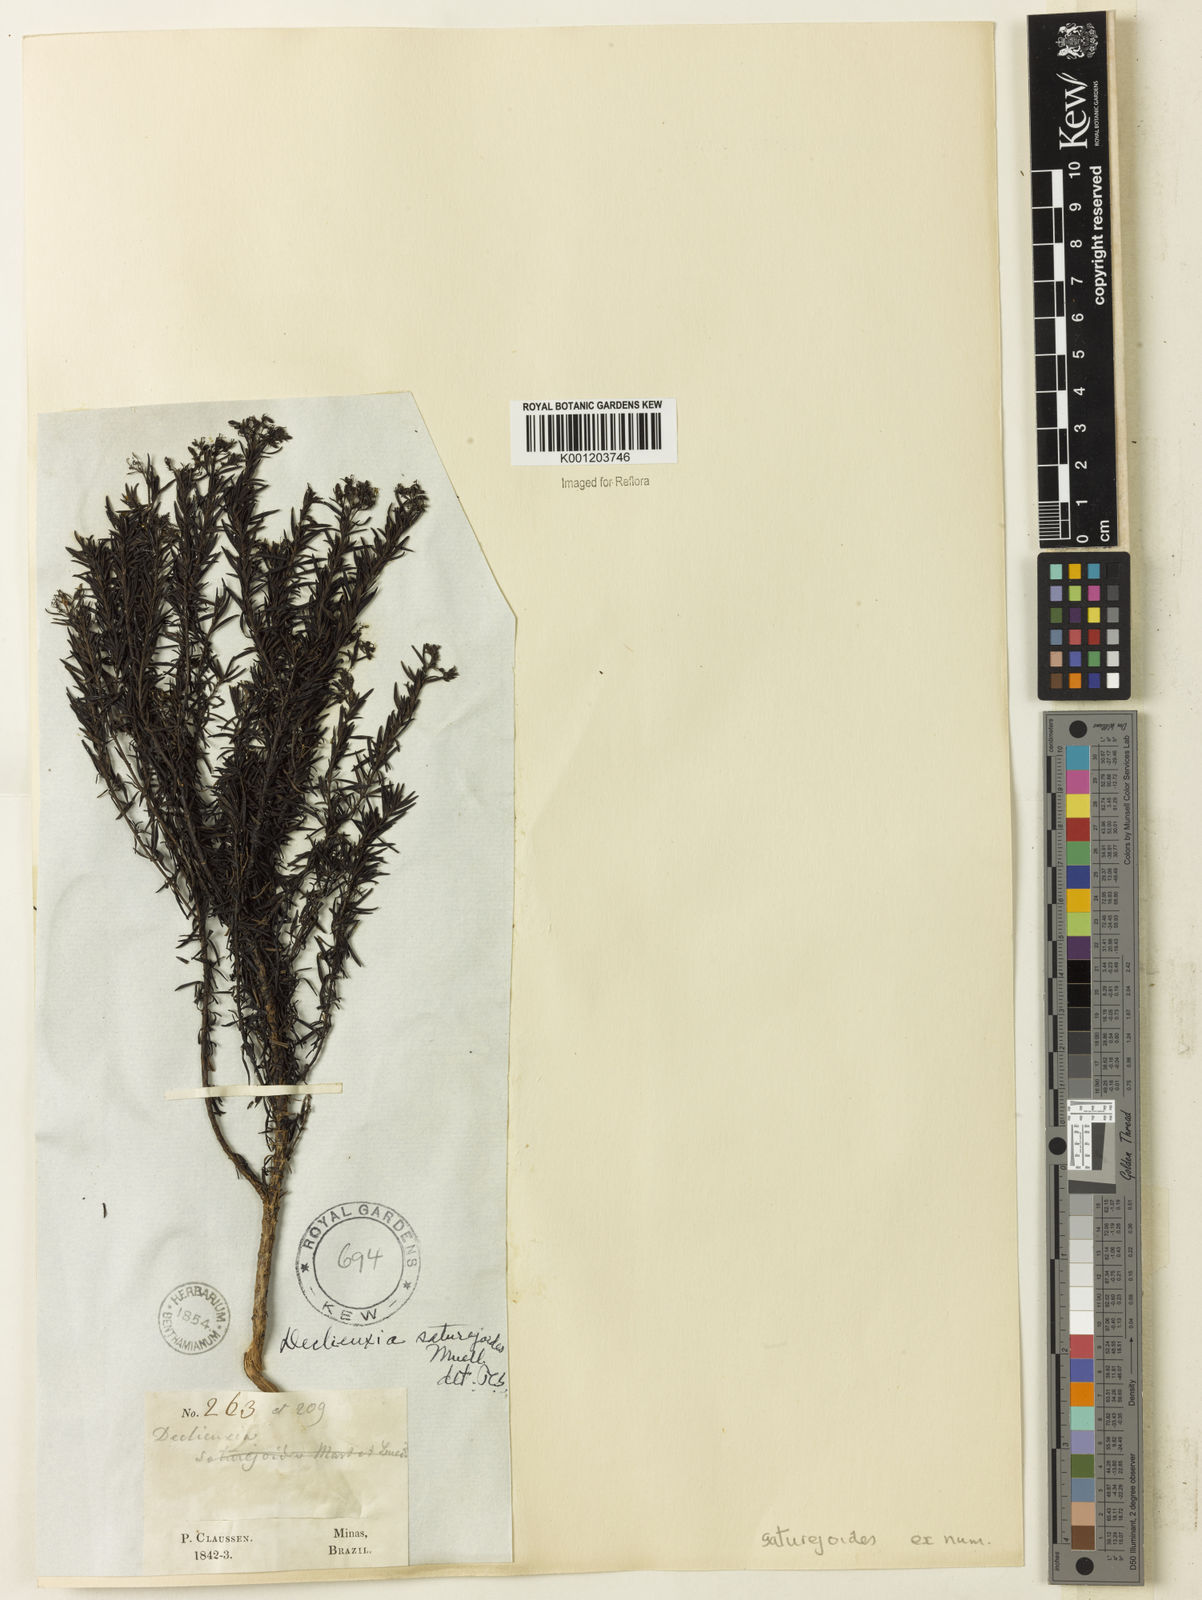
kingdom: Plantae
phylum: Tracheophyta
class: Magnoliopsida
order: Gentianales
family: Rubiaceae
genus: Declieuxia
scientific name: Declieuxia
